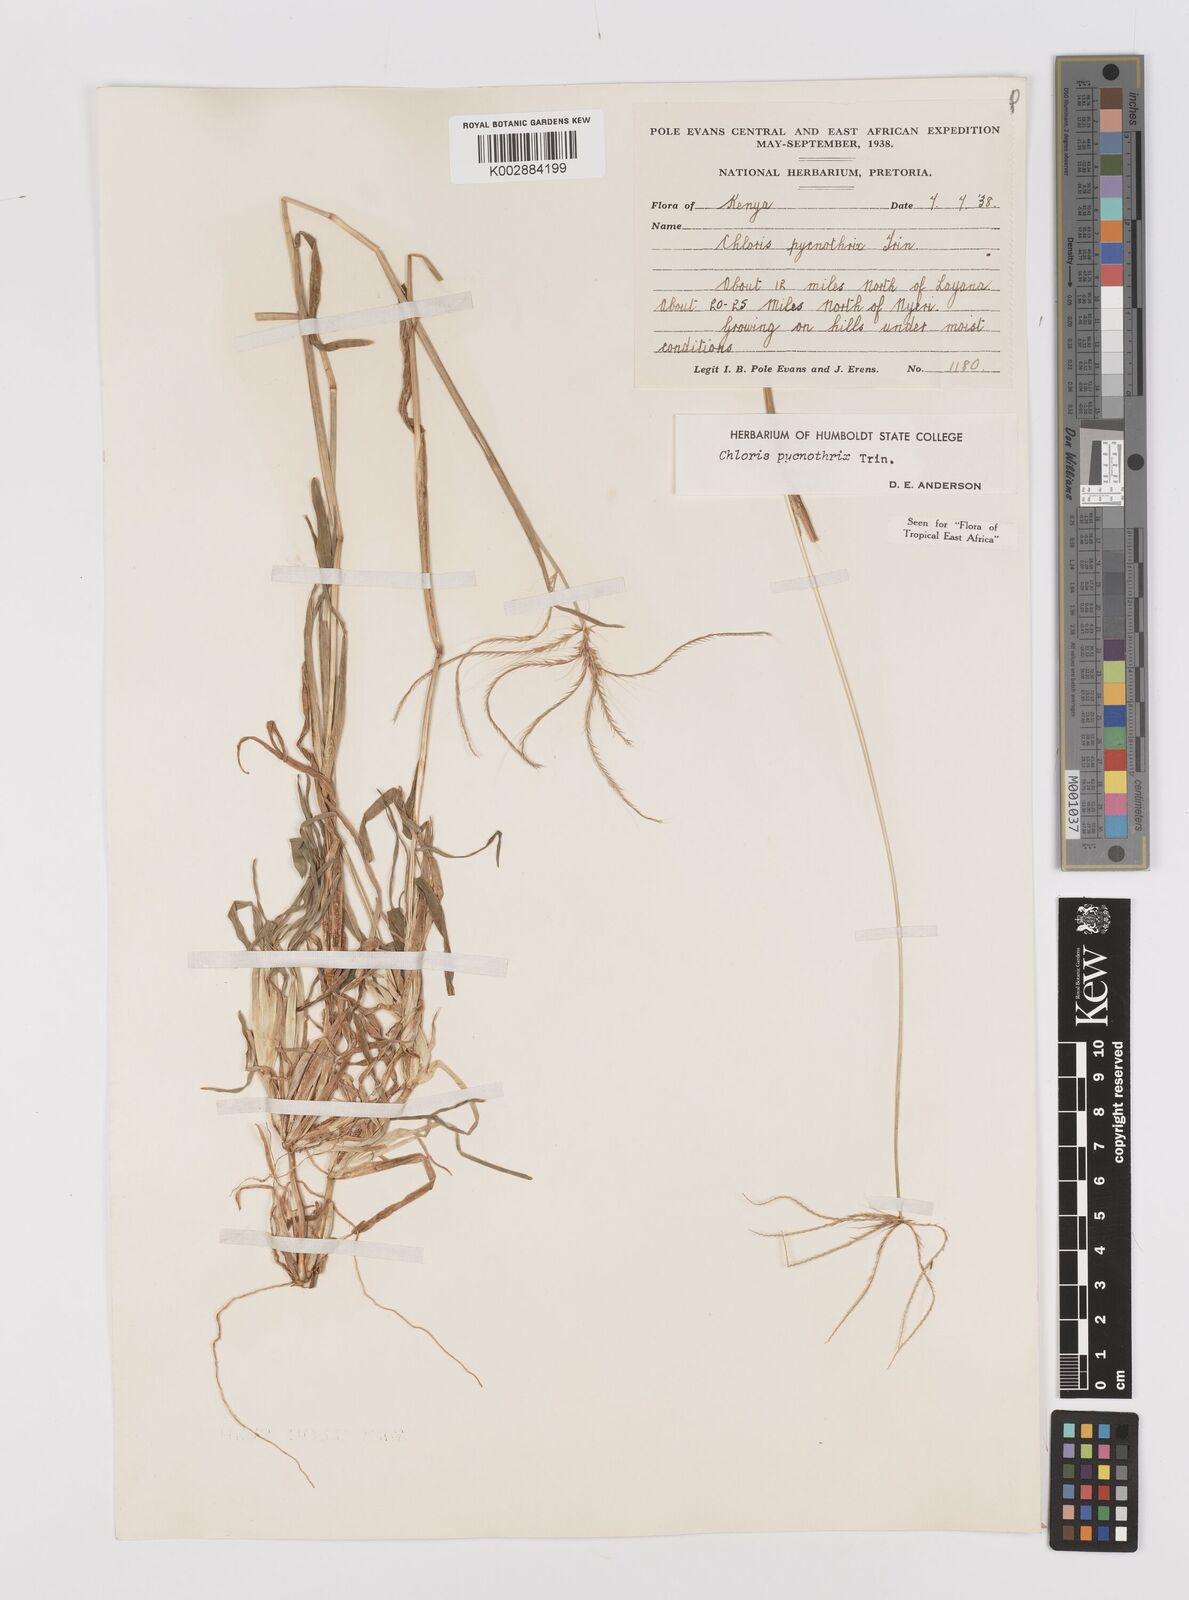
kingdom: Plantae
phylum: Tracheophyta
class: Liliopsida
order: Poales
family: Poaceae
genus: Chloris
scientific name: Chloris pycnothrix
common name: Spiderweb chloris
